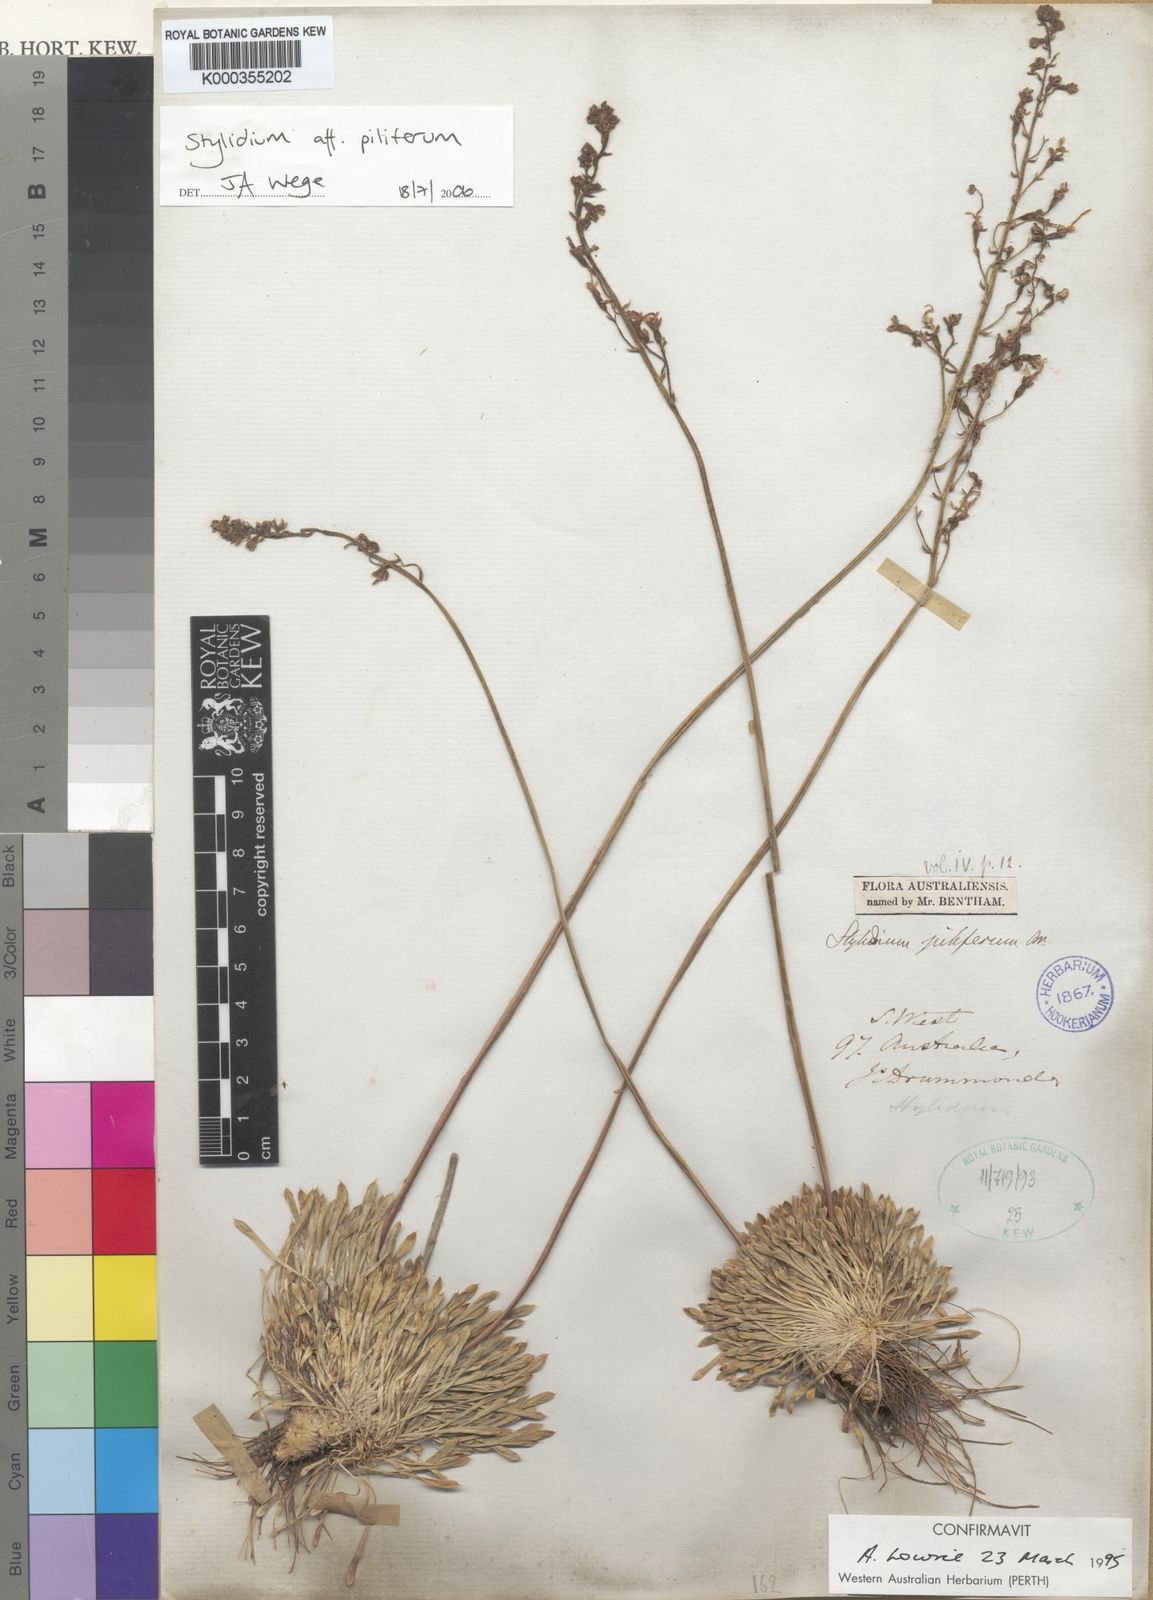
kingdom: Plantae
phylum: Tracheophyta
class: Magnoliopsida
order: Asterales
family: Stylidiaceae
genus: Stylidium
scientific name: Stylidium piliferum
